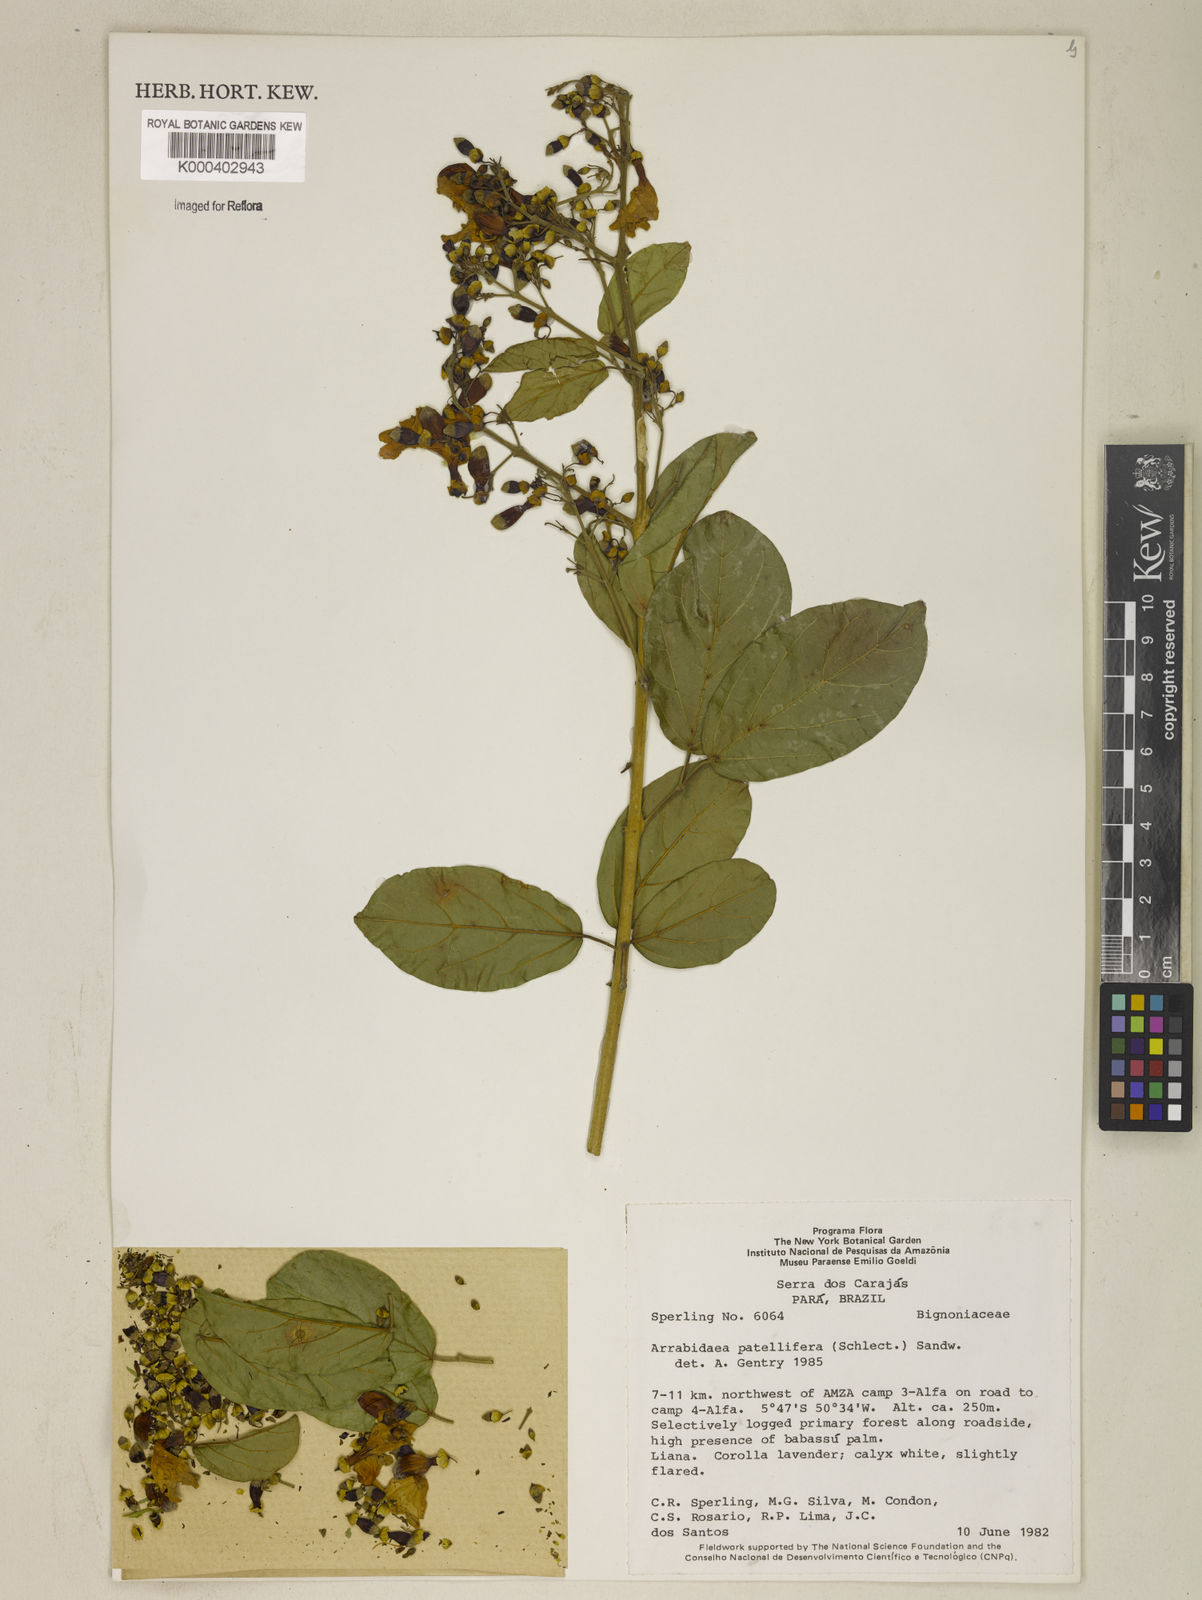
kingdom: Plantae
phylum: Tracheophyta
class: Magnoliopsida
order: Lamiales
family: Bignoniaceae
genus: Fridericia
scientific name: Fridericia patellifera
